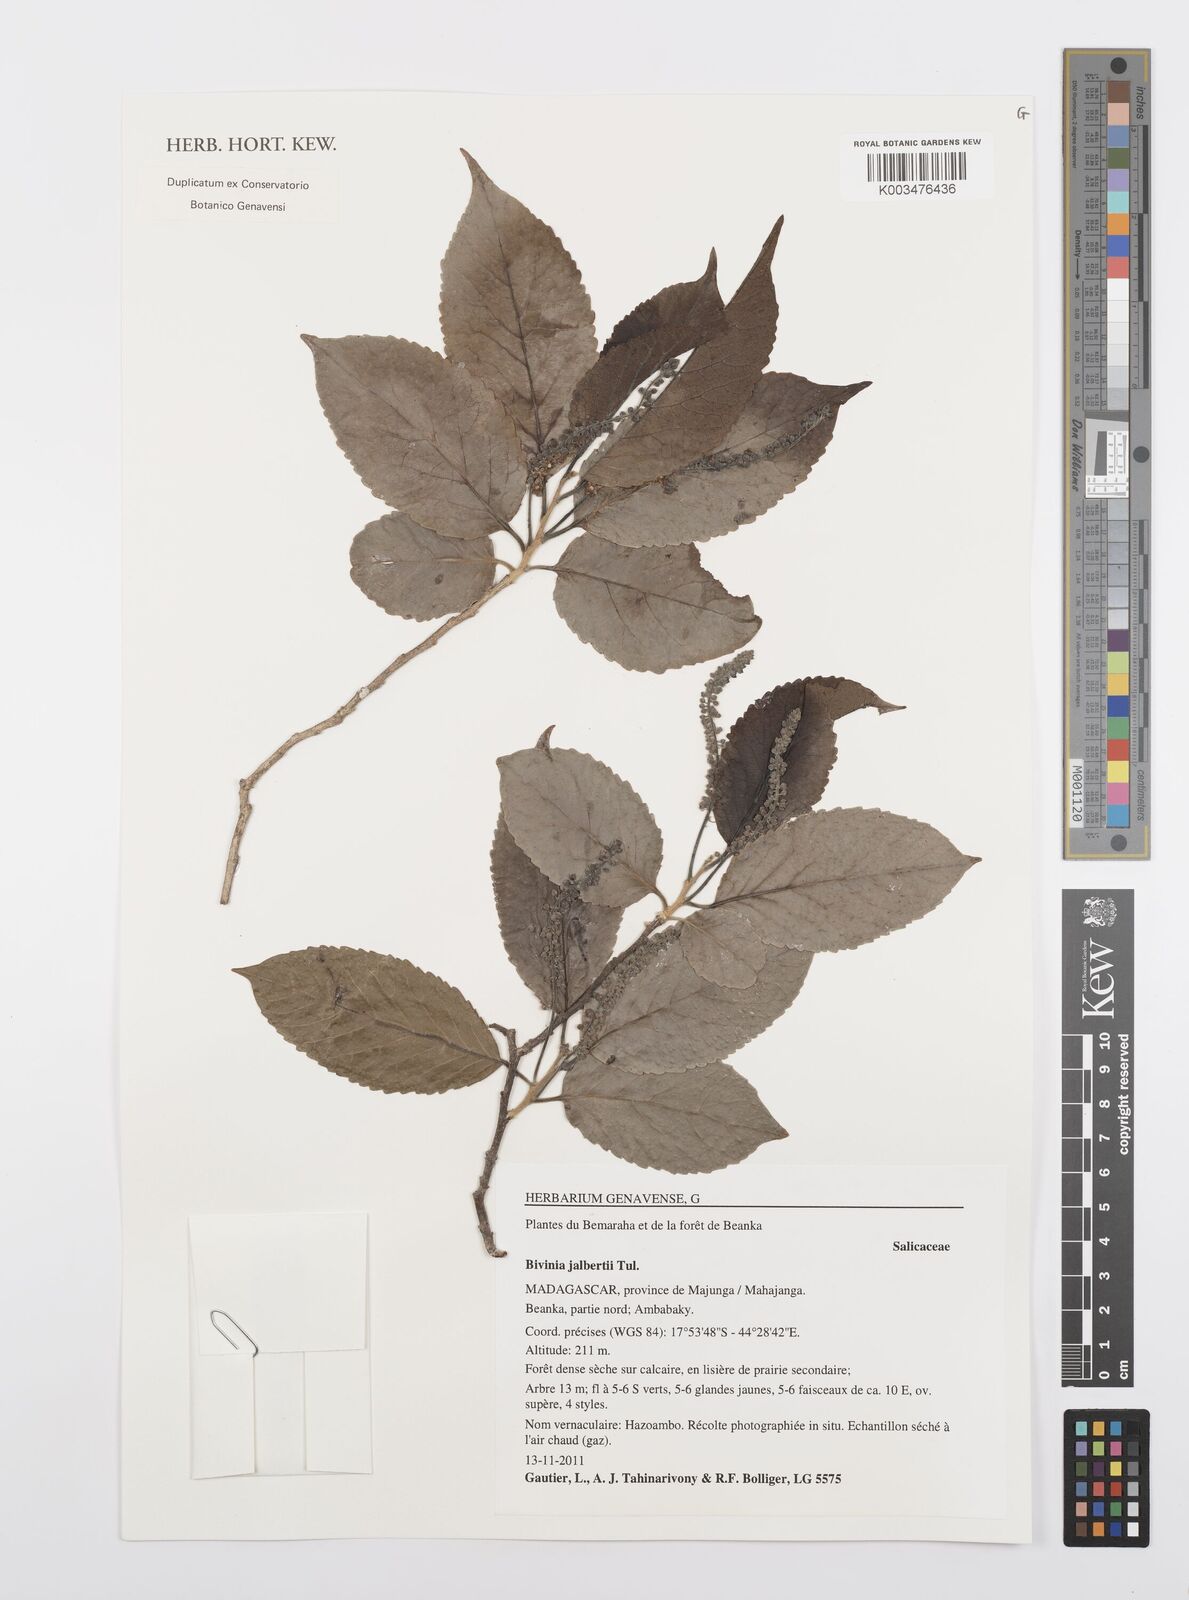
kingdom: Plantae
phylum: Tracheophyta
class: Magnoliopsida
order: Malpighiales
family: Salicaceae
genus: Bivinia
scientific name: Bivinia jalbertii
